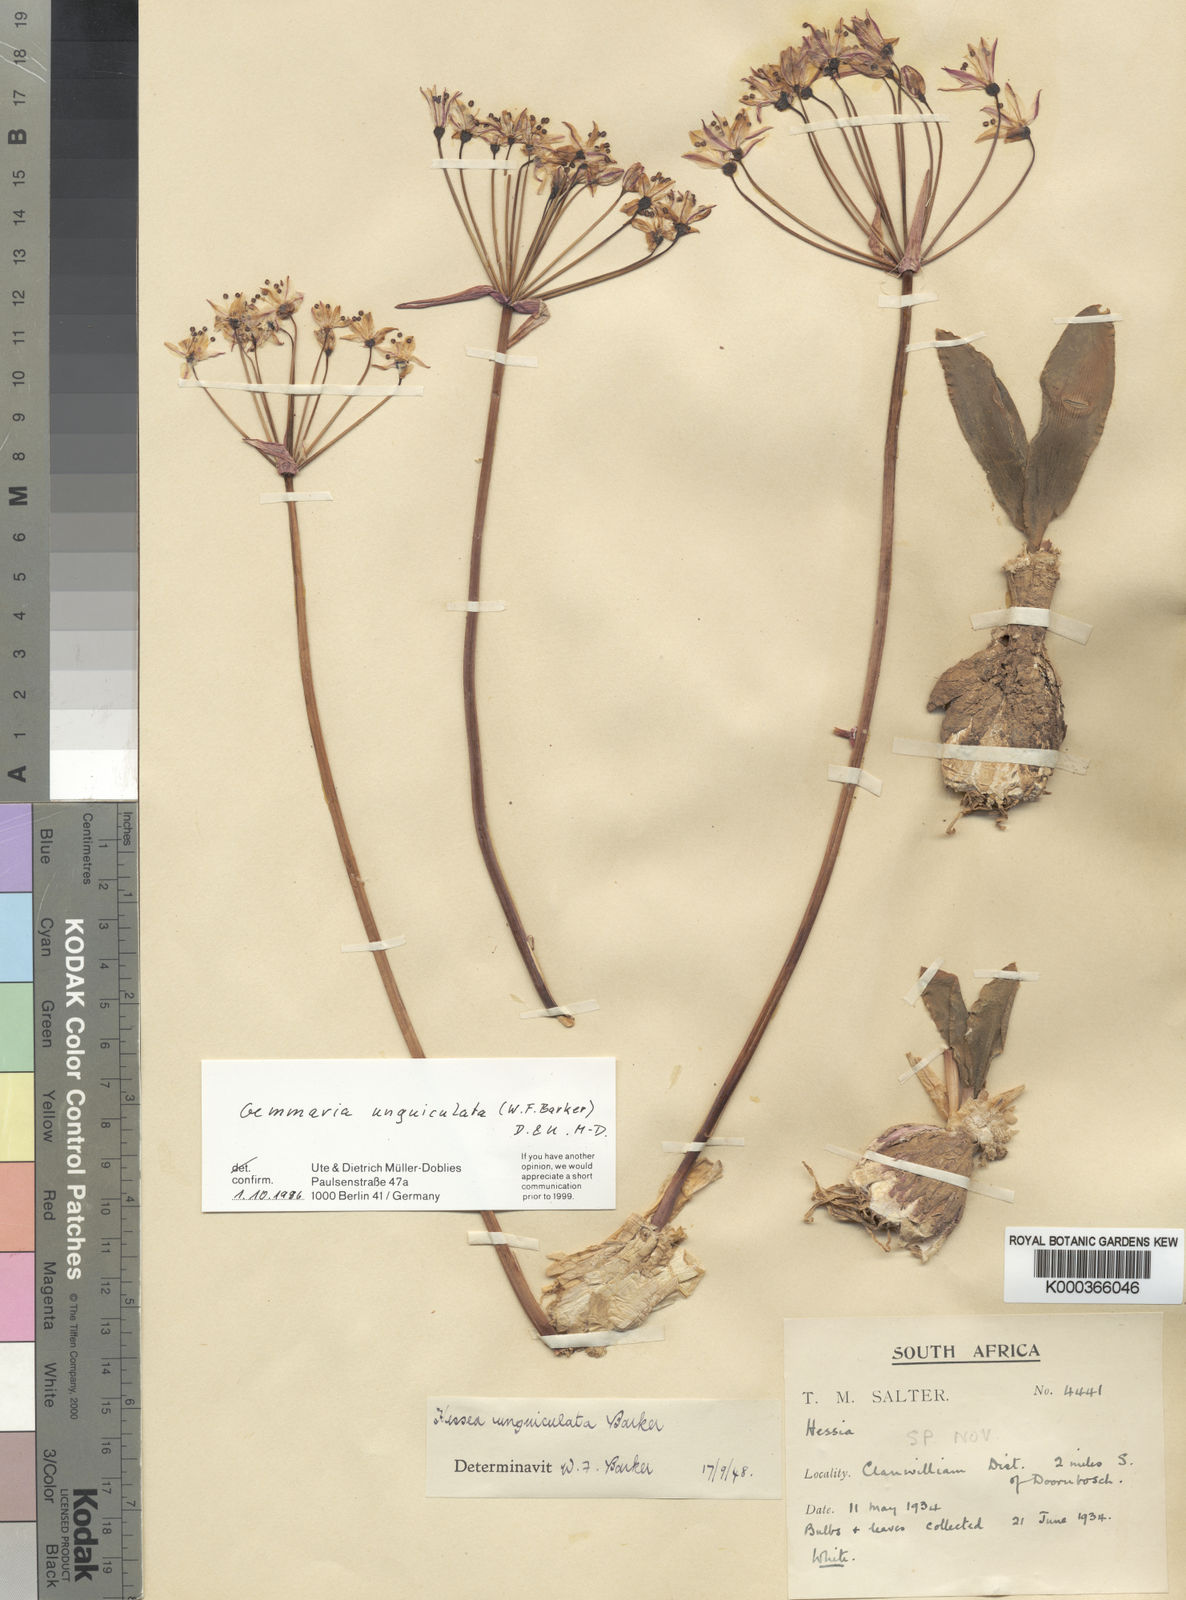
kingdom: Plantae
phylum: Tracheophyta
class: Liliopsida
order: Asparagales
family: Amaryllidaceae
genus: Strumaria
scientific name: Strumaria unguiculata
